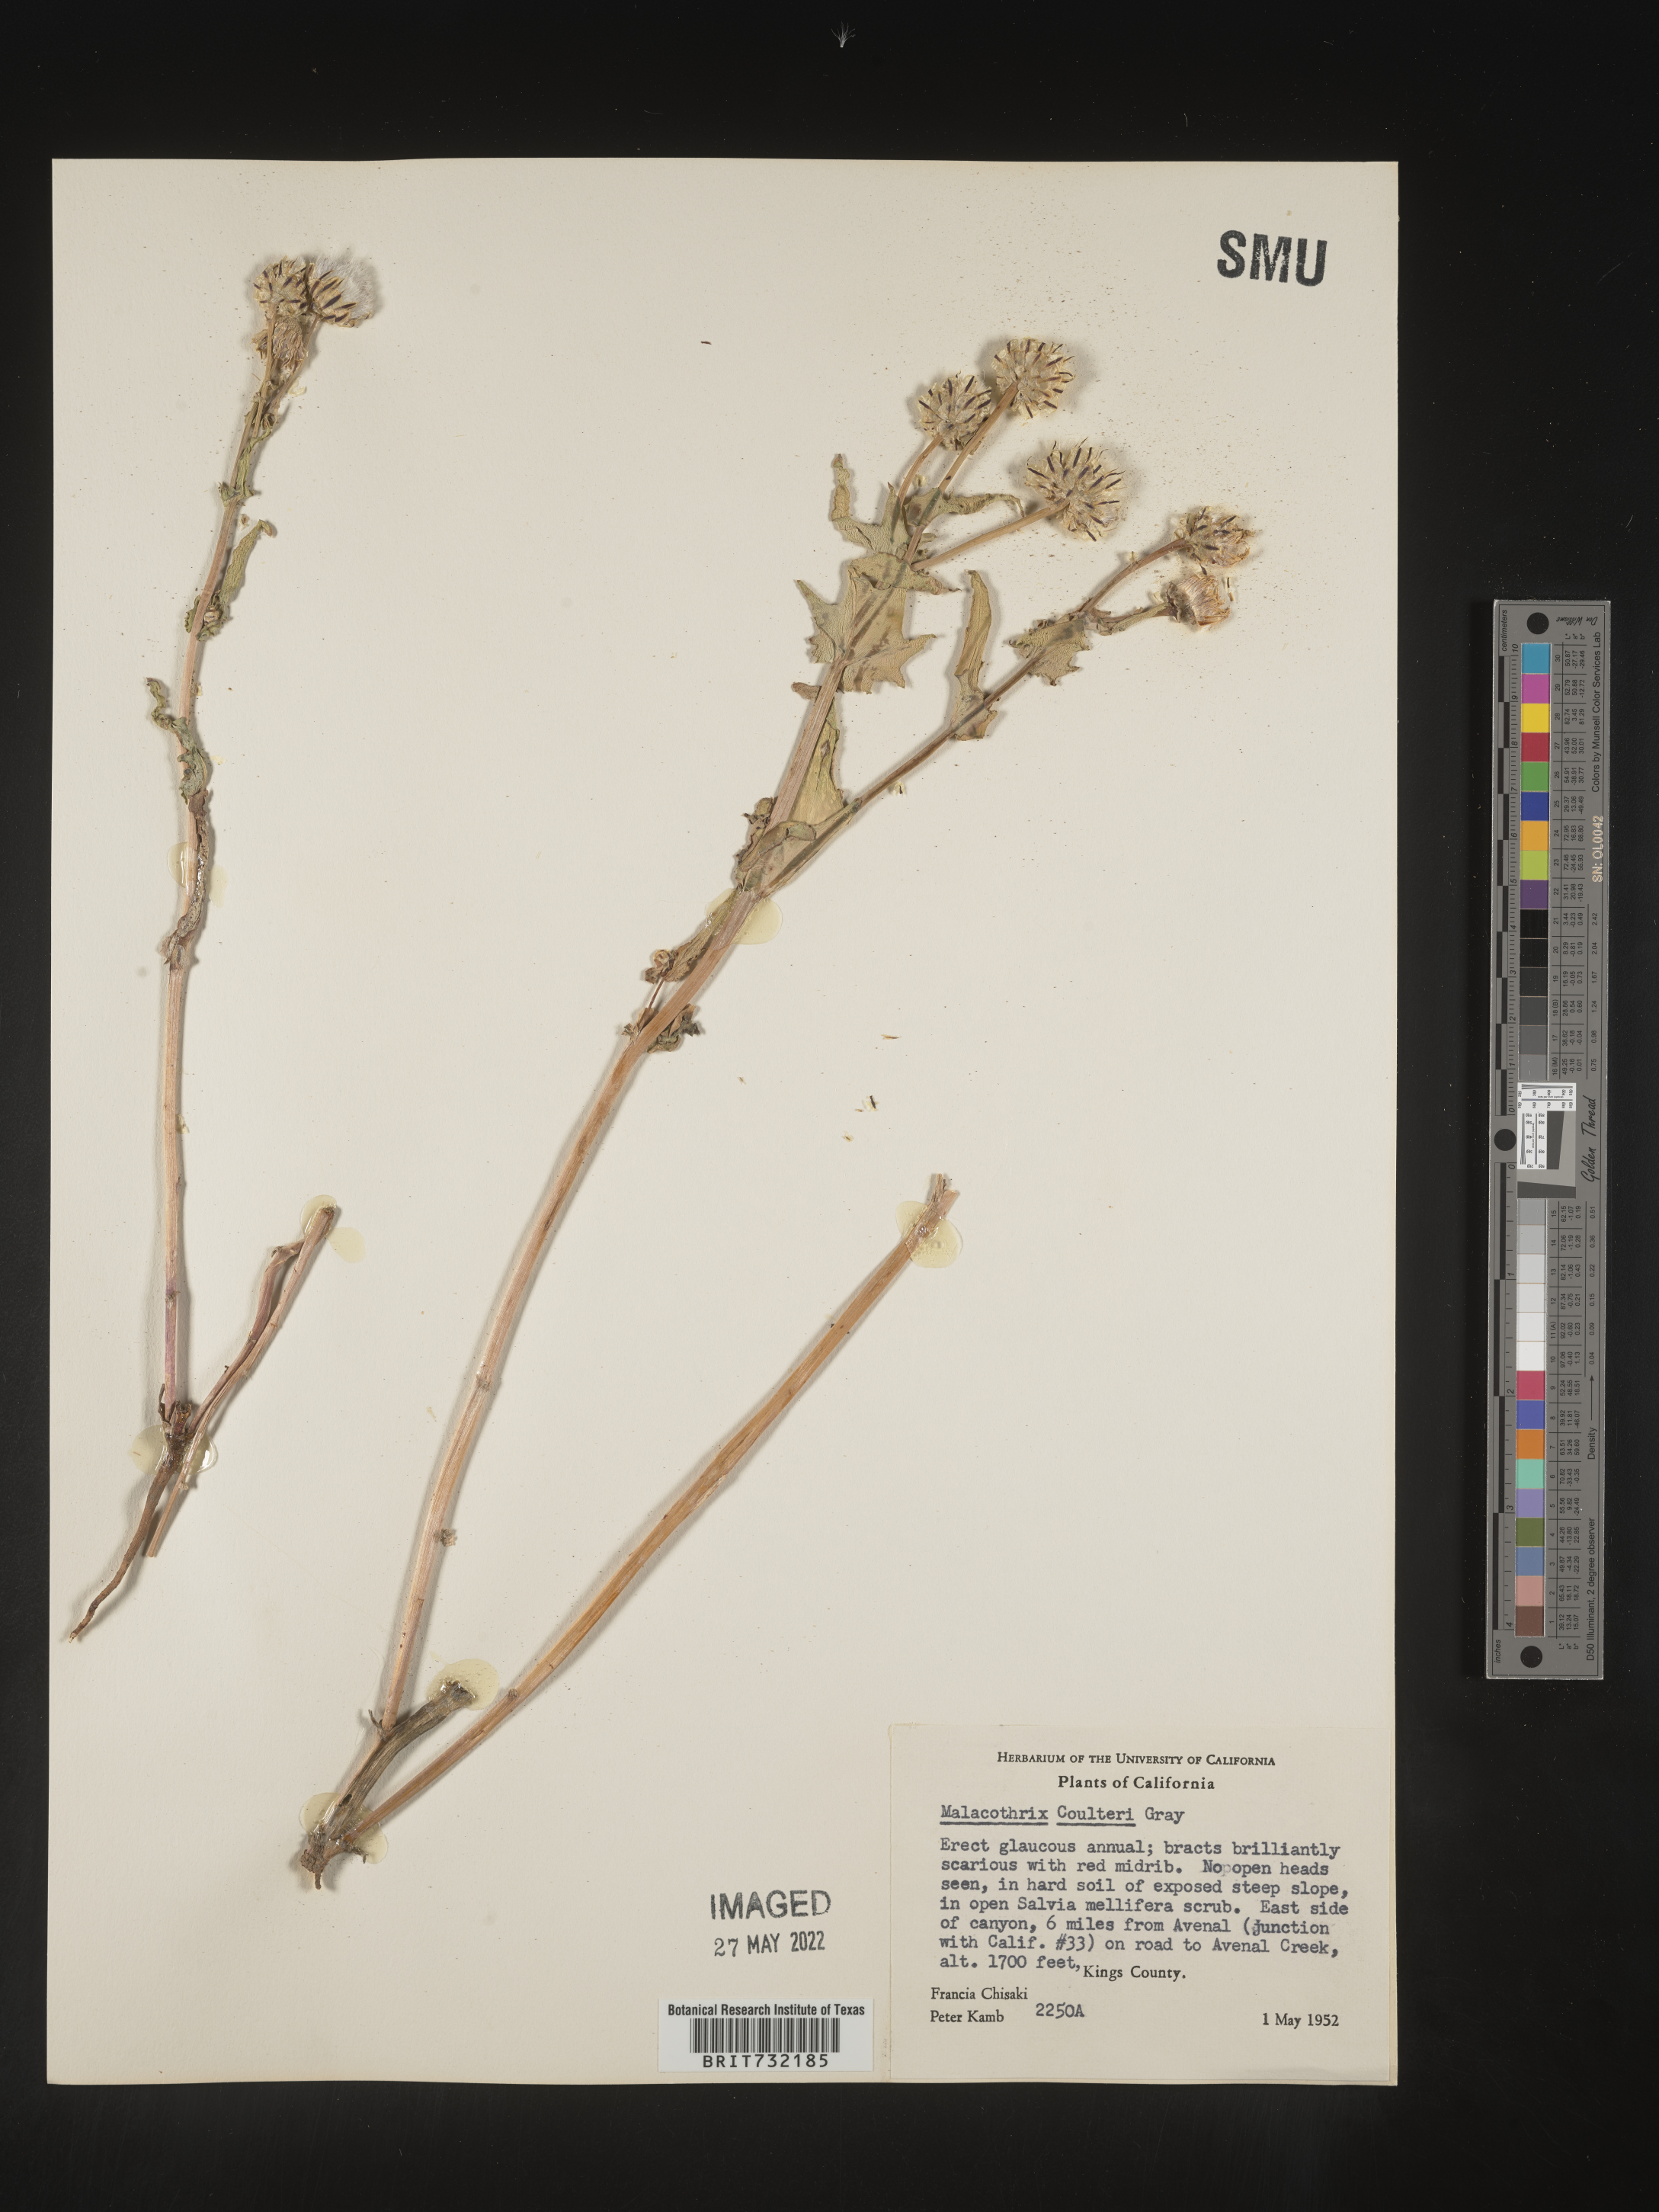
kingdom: Plantae
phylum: Tracheophyta
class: Magnoliopsida
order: Asterales
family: Asteraceae
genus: Malacothrix
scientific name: Malacothrix
